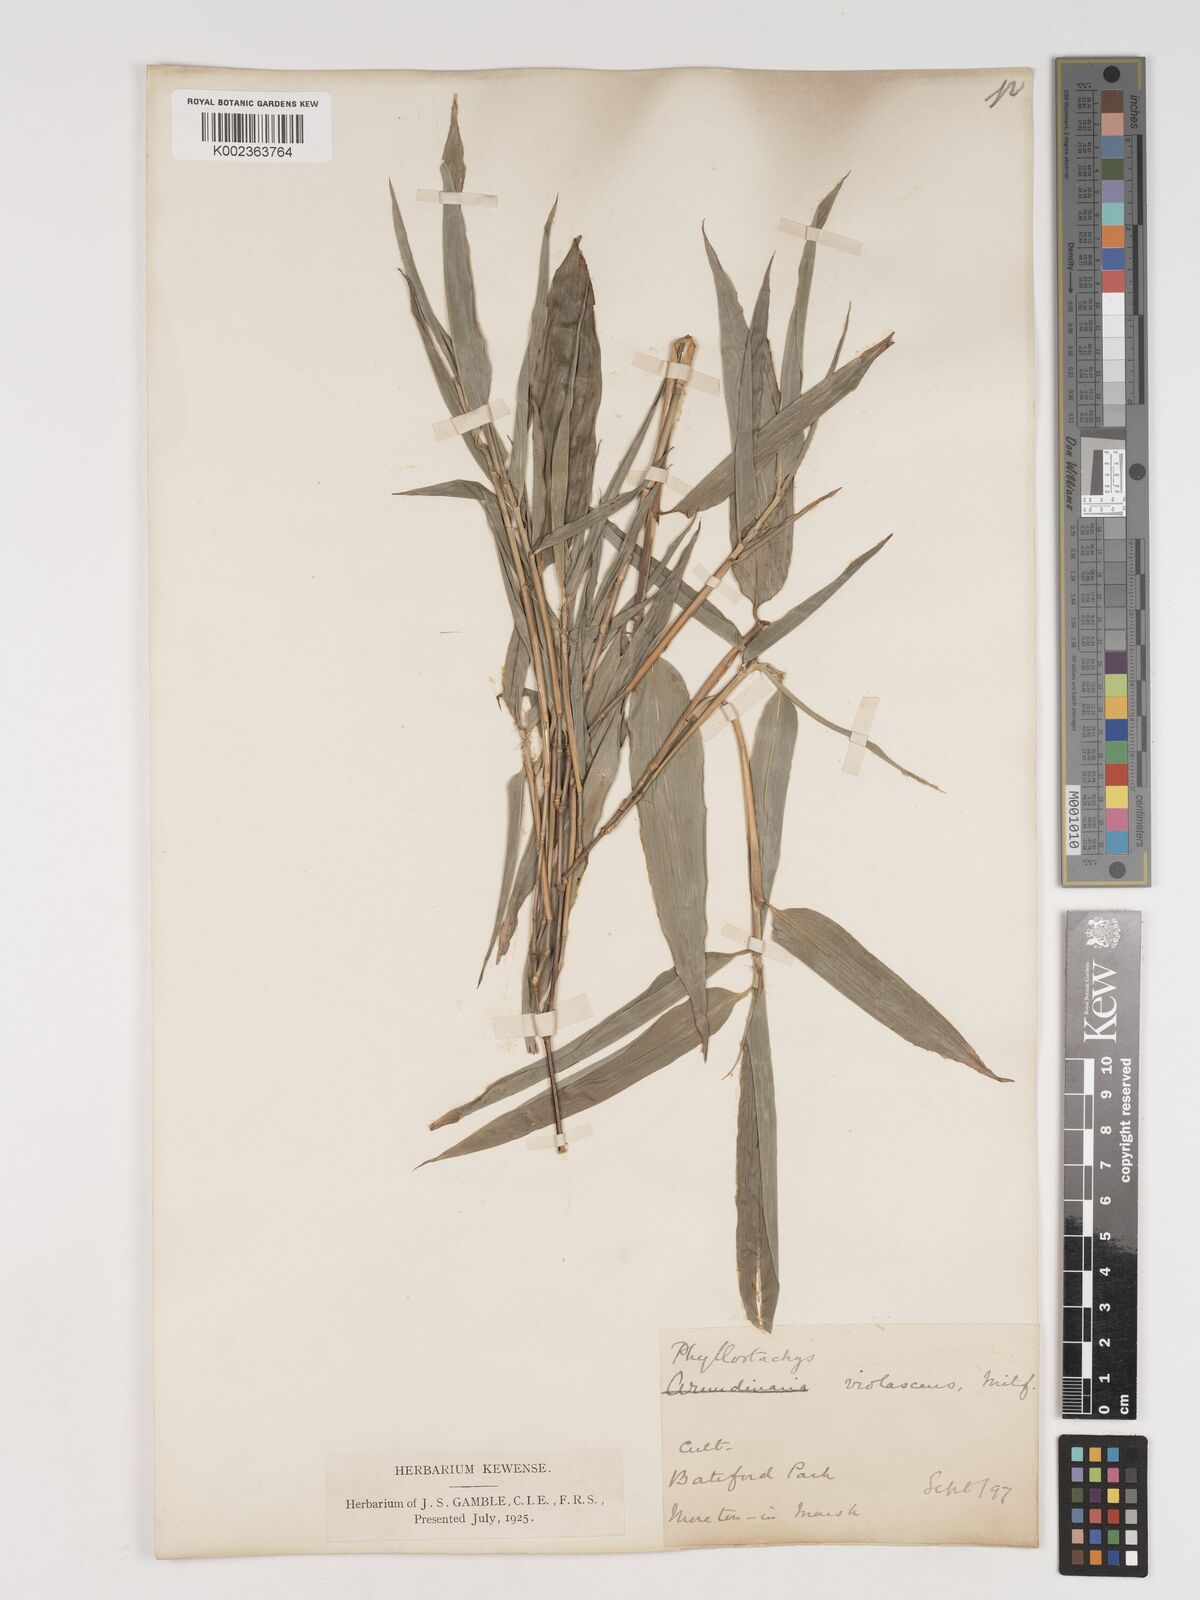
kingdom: Plantae
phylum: Tracheophyta
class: Liliopsida
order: Poales
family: Poaceae
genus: Phyllostachys
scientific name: Phyllostachys reticulata
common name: Bamboo
